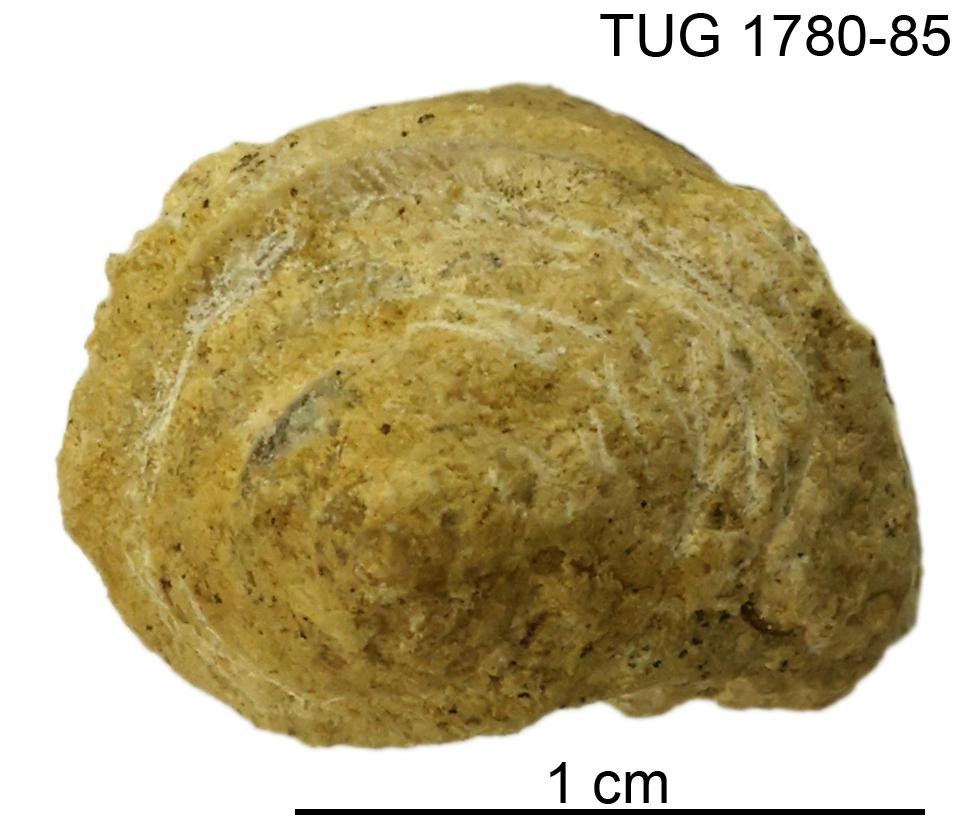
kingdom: Animalia
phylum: Mollusca
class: Gastropoda
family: Subulitidae
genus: Subulites
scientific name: Subulites amphora
